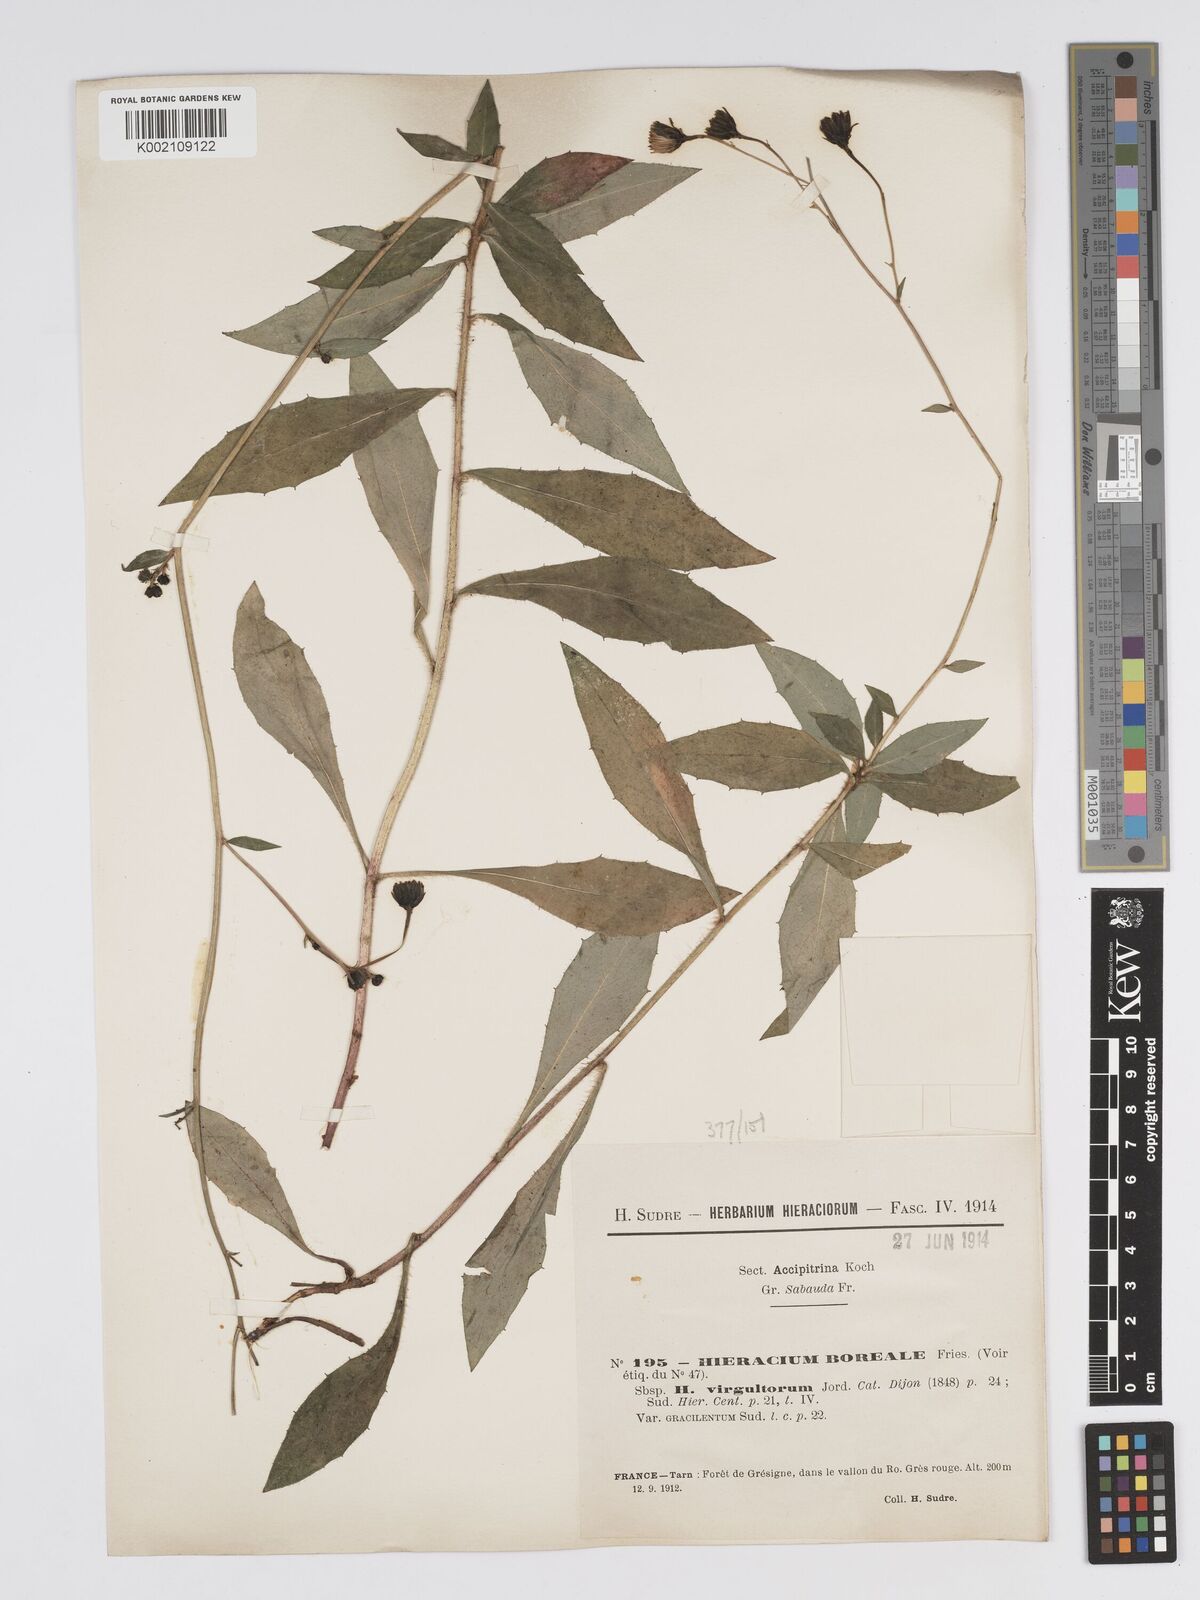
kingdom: Plantae
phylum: Tracheophyta
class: Magnoliopsida
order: Asterales
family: Asteraceae
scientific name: Asteraceae
